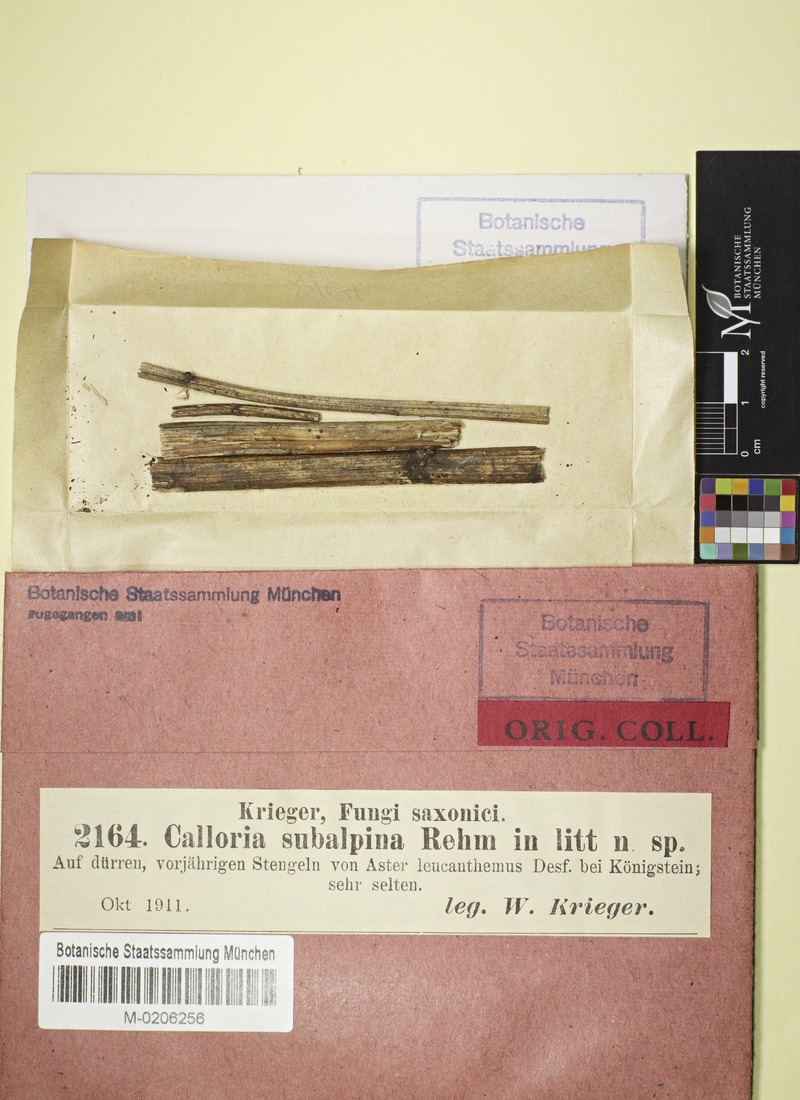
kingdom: Fungi
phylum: Ascomycota
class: Leotiomycetes
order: Helotiales
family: Pezizellaceae
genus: Micropeziza
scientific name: Micropeziza umbrinella
